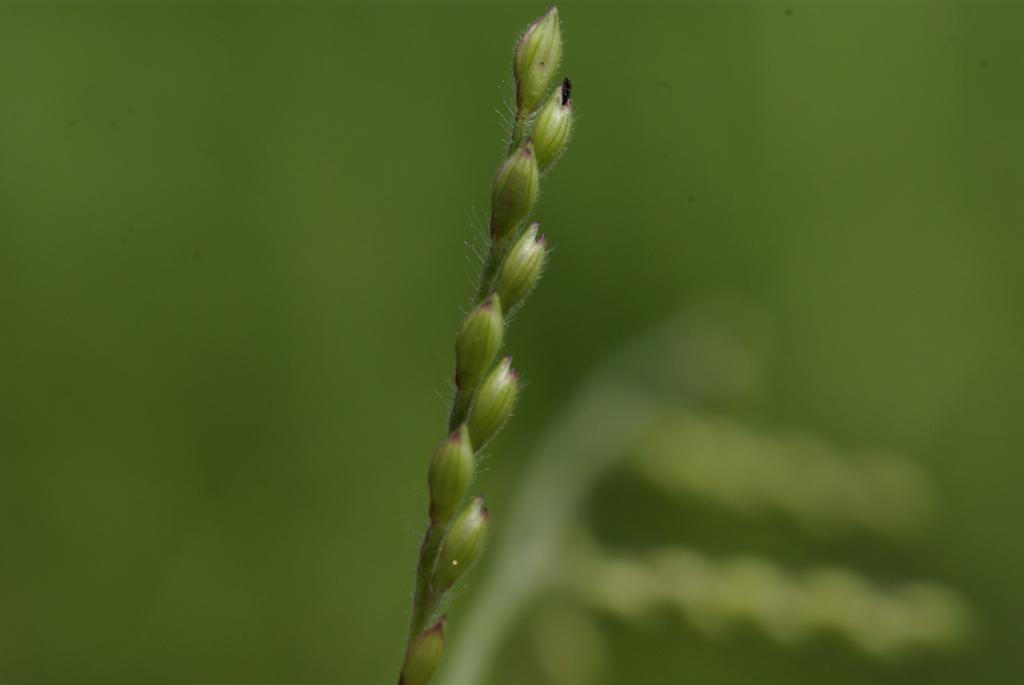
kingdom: Plantae
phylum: Tracheophyta
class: Liliopsida
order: Poales
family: Poaceae
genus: Urochloa
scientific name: Urochloa villosa
